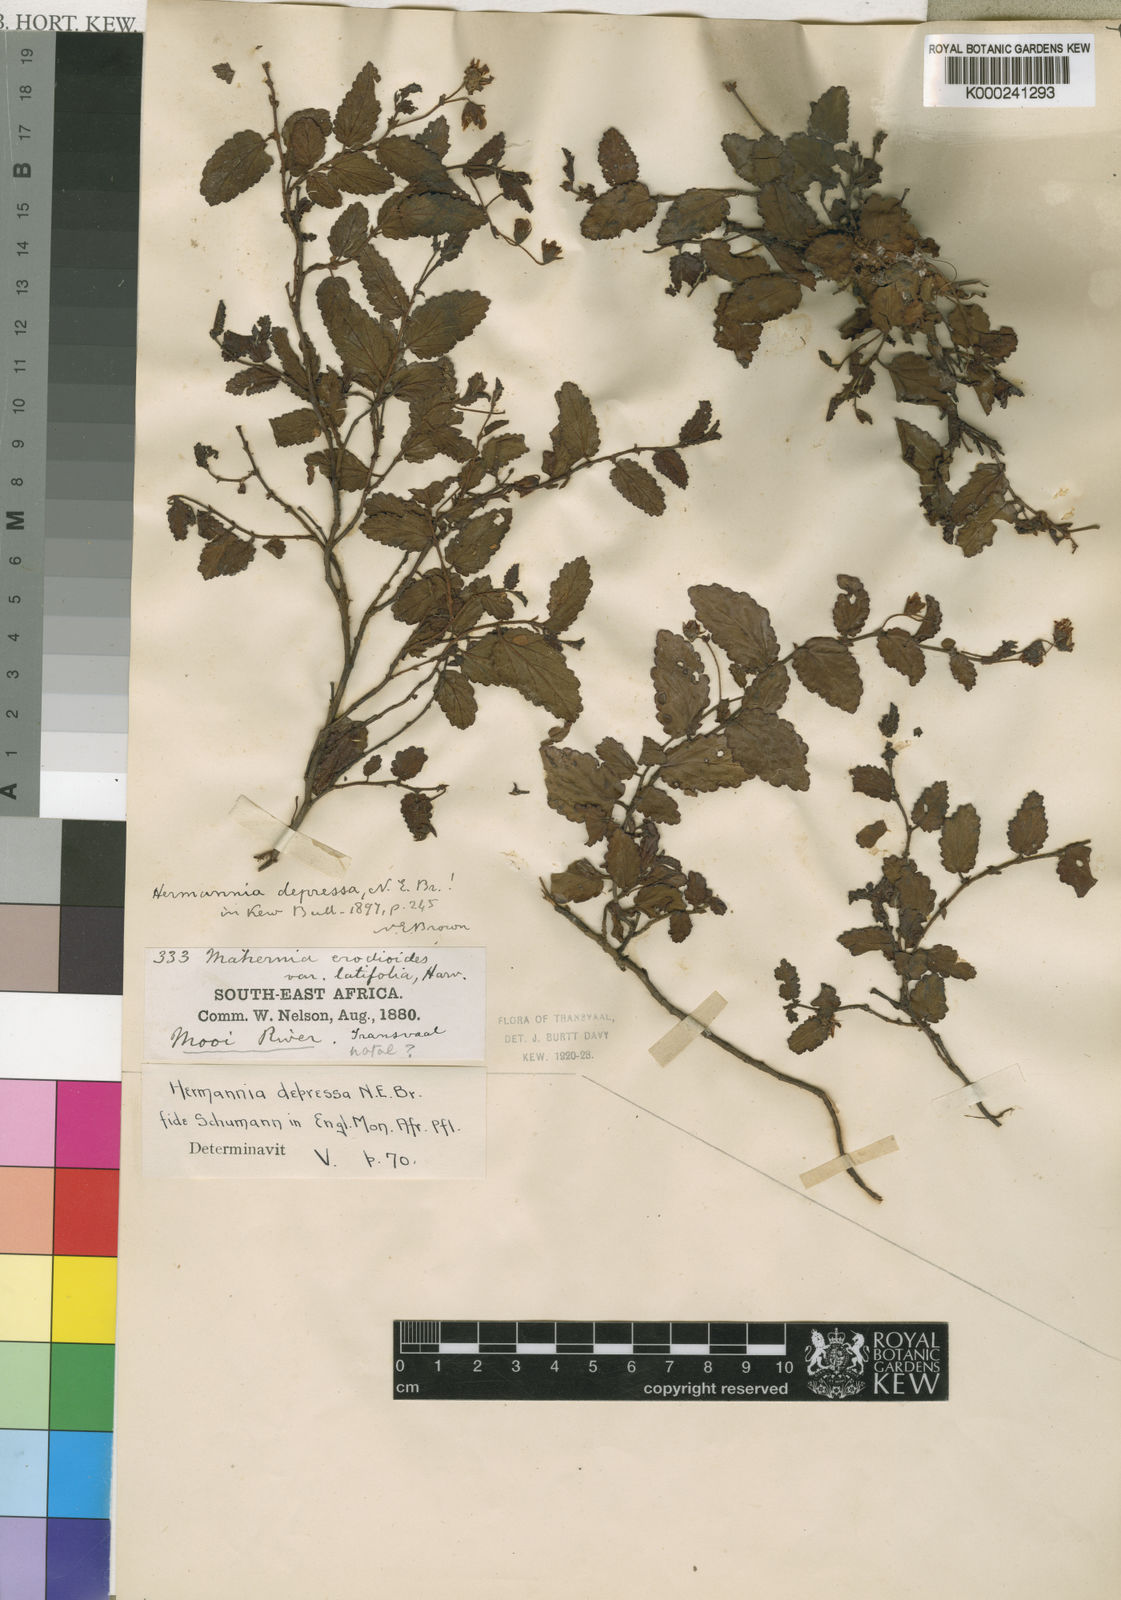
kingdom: Plantae
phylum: Tracheophyta
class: Magnoliopsida
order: Malvales
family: Malvaceae
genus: Hermannia
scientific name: Hermannia
